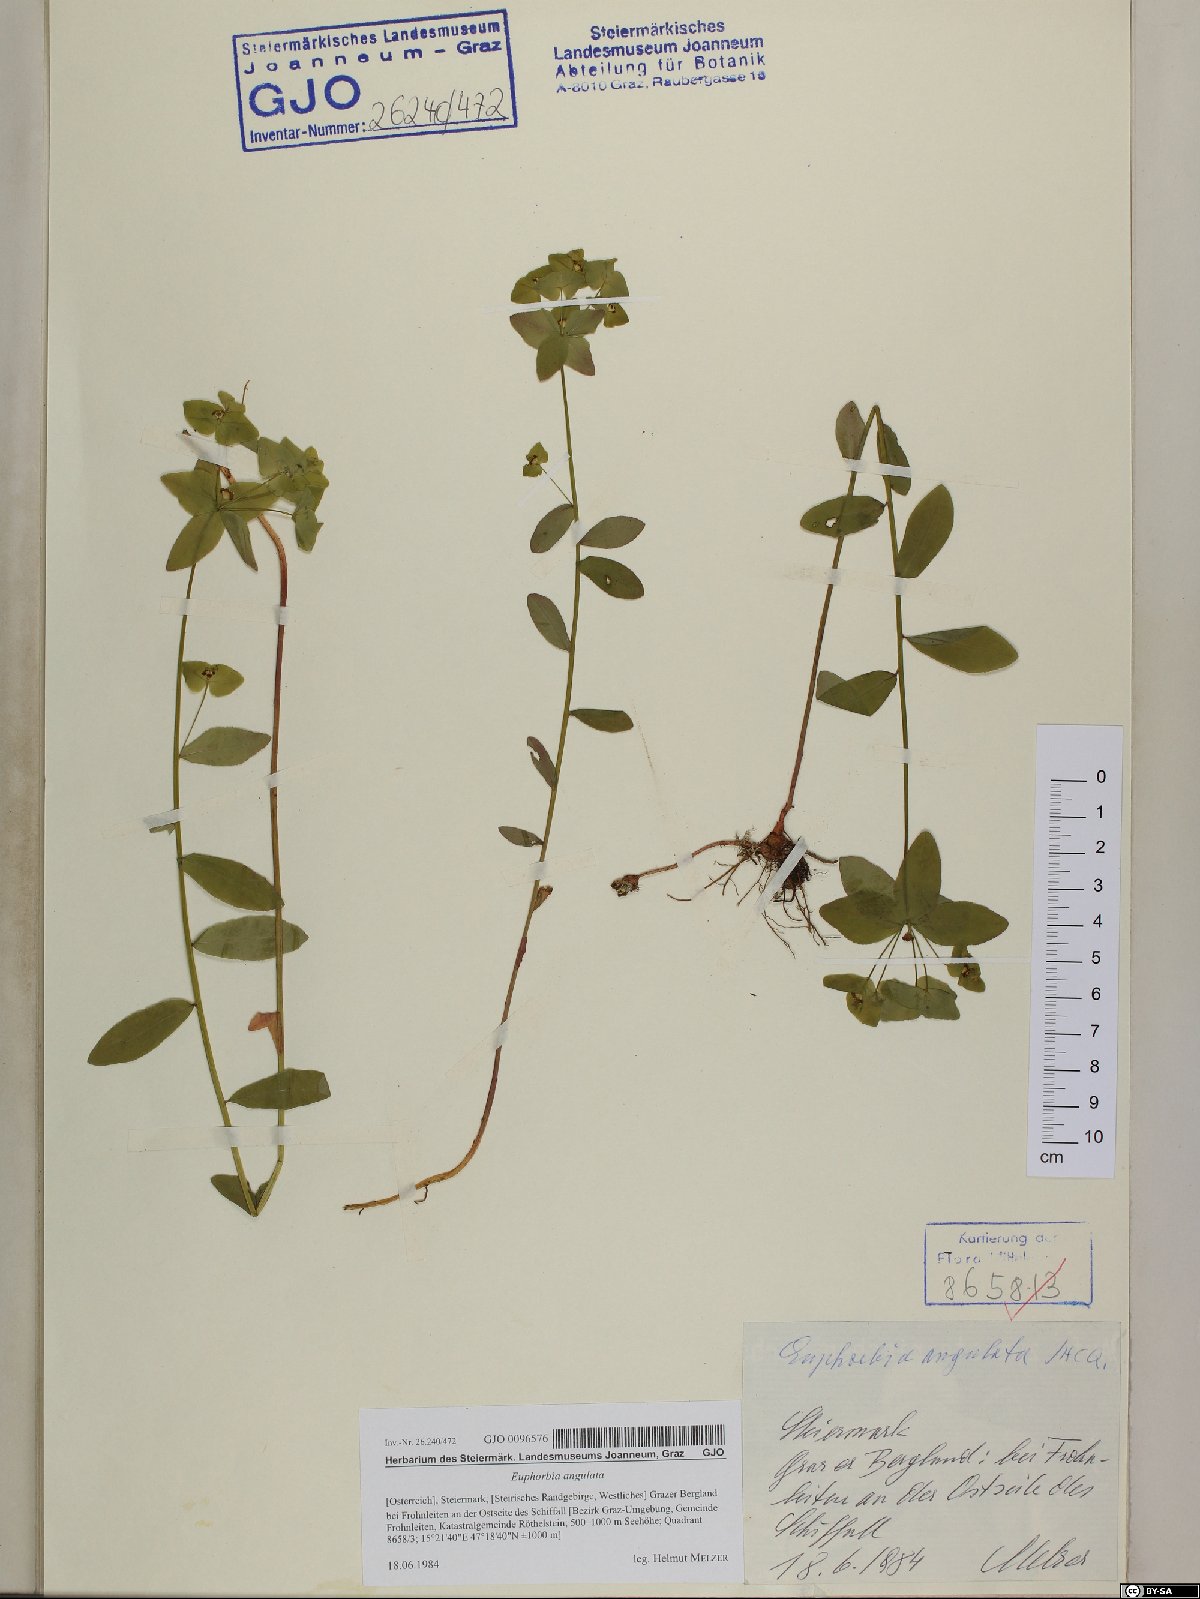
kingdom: Plantae
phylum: Tracheophyta
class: Magnoliopsida
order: Malpighiales
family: Euphorbiaceae
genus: Euphorbia
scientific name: Euphorbia angulata
